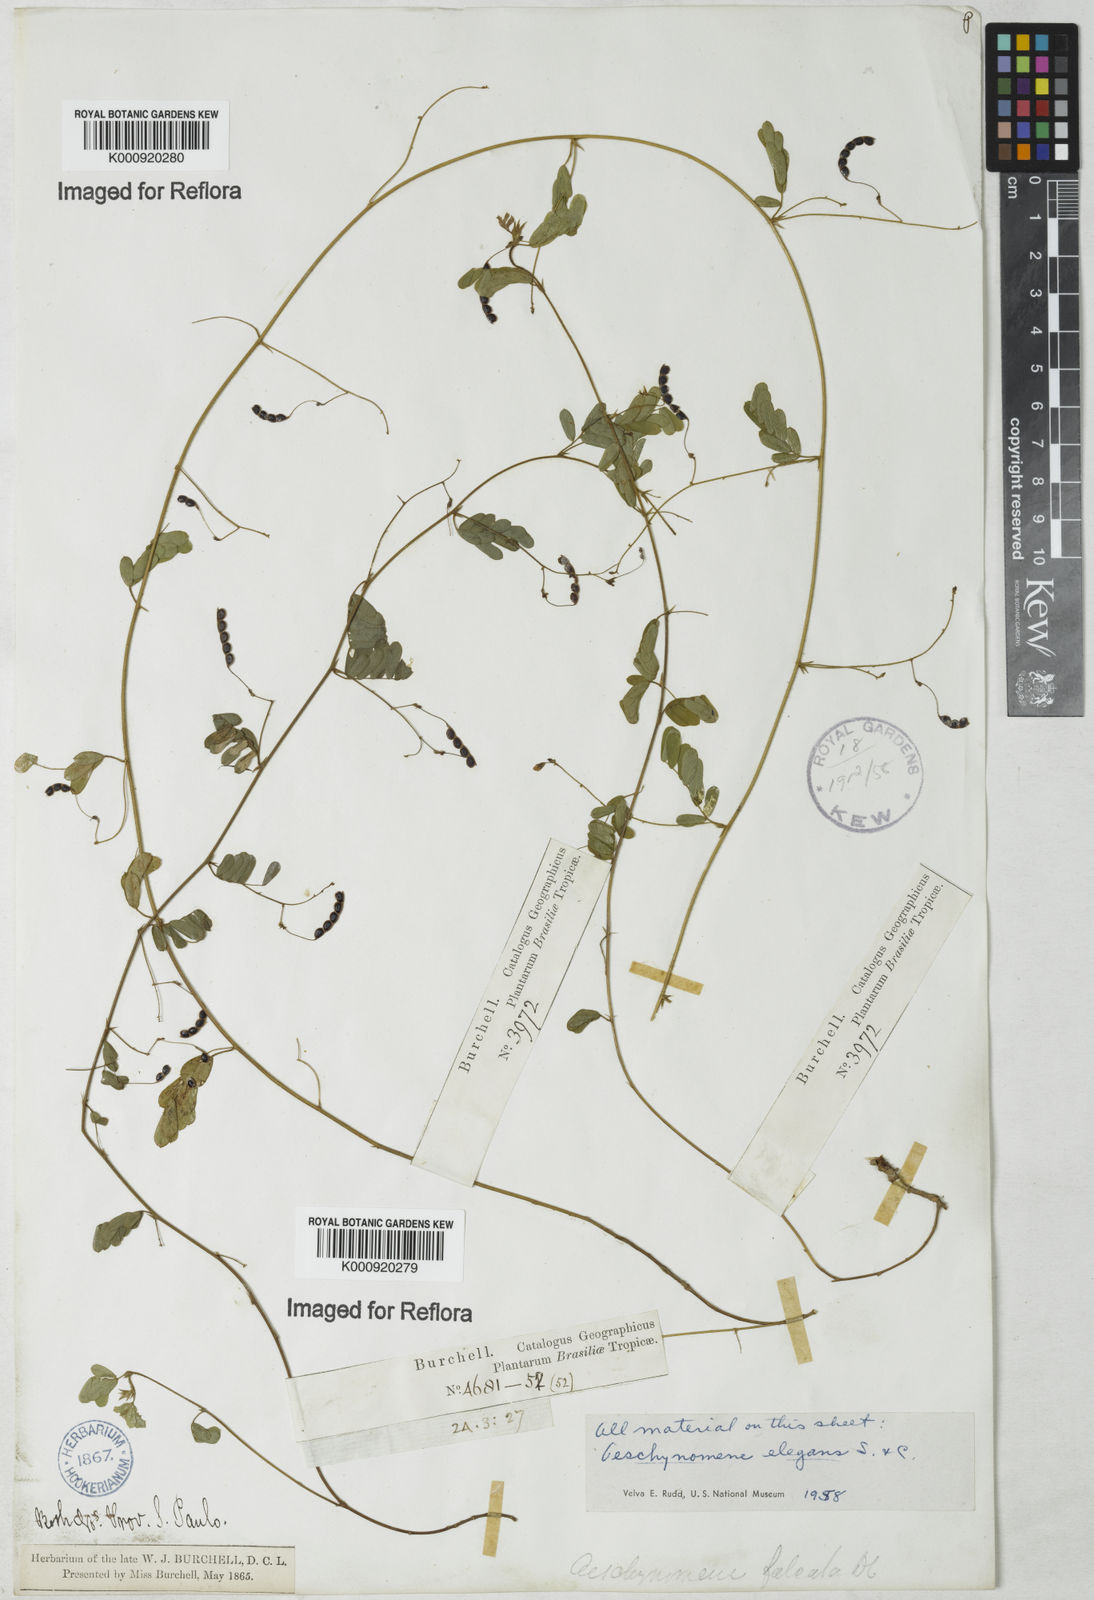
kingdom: Plantae
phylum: Tracheophyta
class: Magnoliopsida
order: Fabales
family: Fabaceae
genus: Ctenodon
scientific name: Ctenodon elegans
